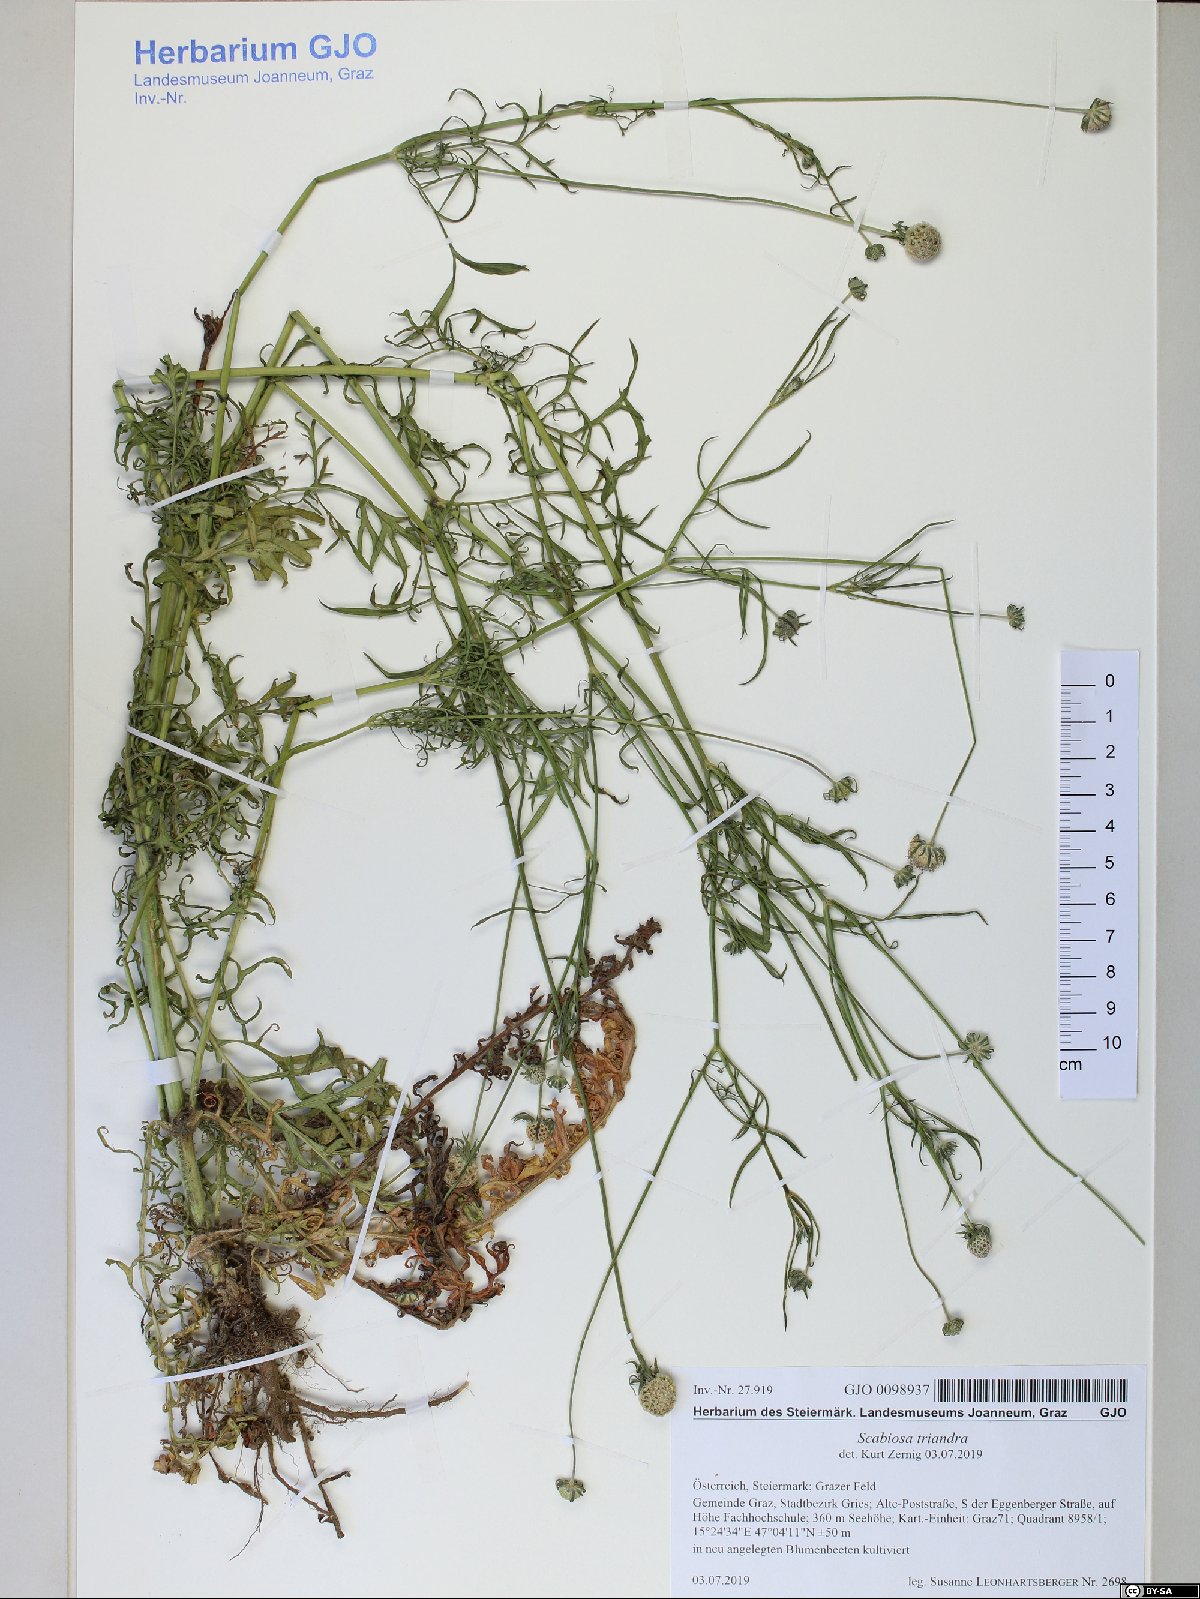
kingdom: Plantae
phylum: Tracheophyta
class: Magnoliopsida
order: Dipsacales
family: Caprifoliaceae
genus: Scabiosa
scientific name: Scabiosa triandra
